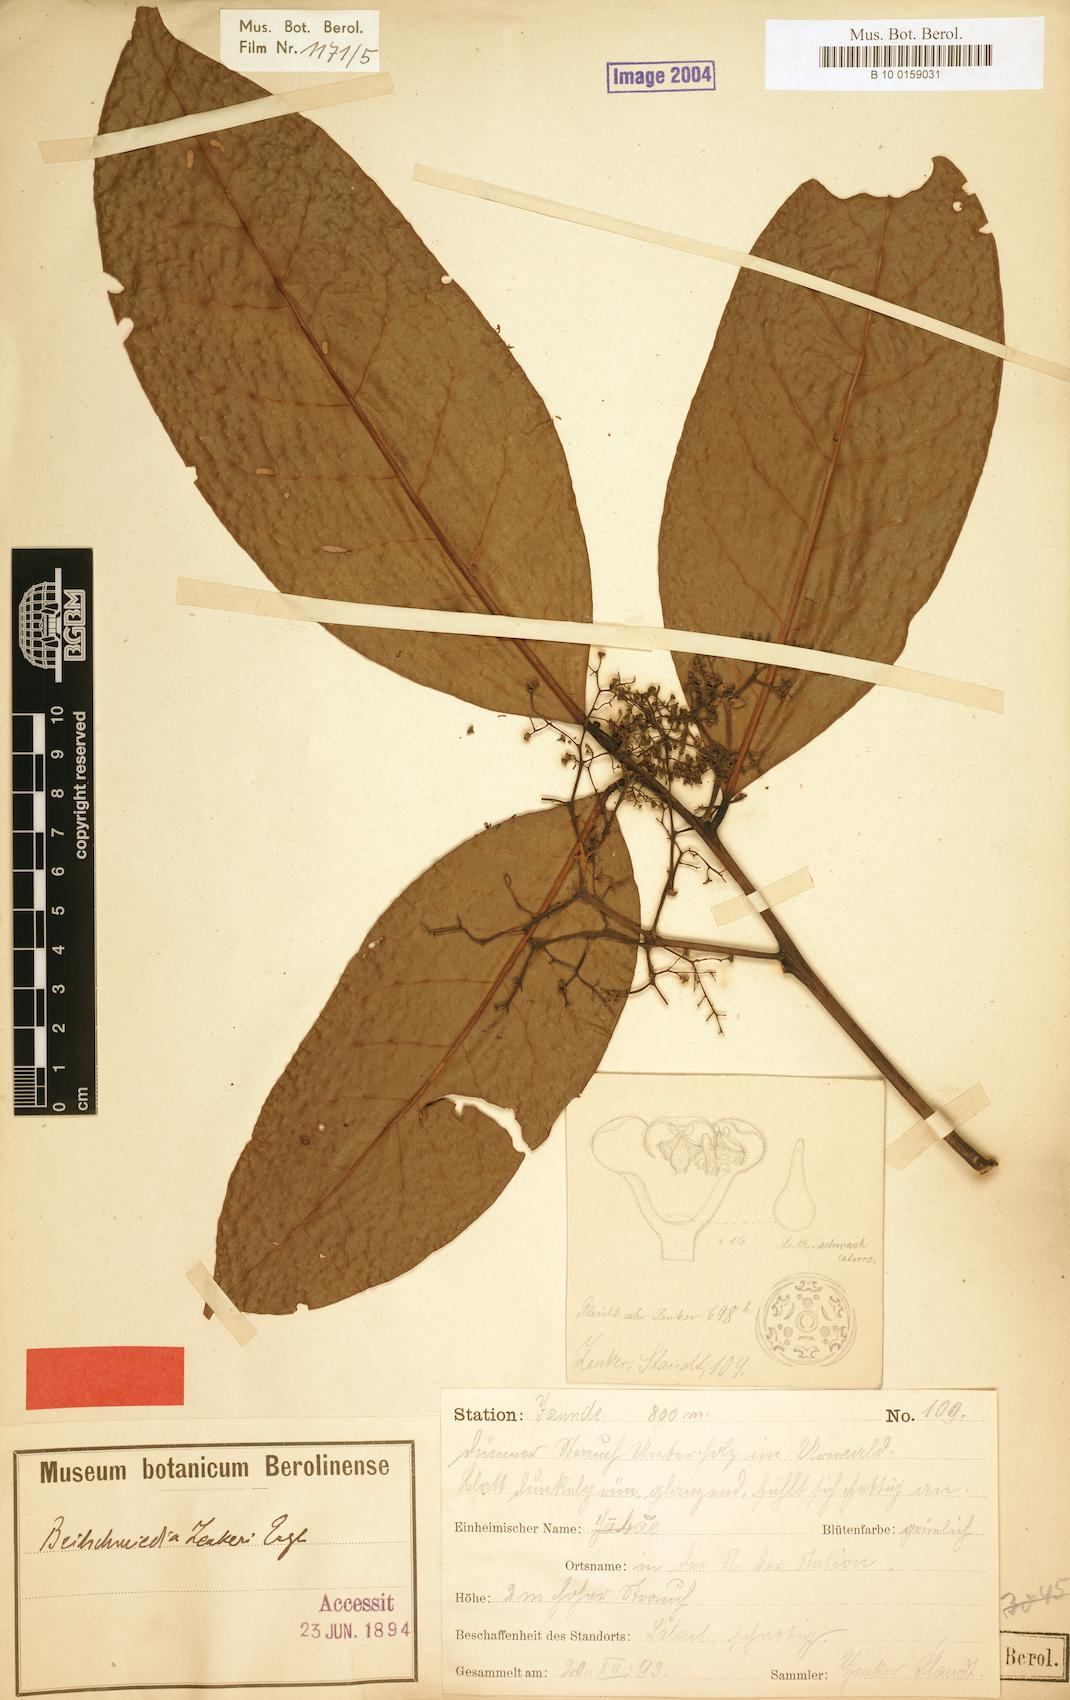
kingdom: Plantae
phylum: Tracheophyta
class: Magnoliopsida
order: Laurales
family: Lauraceae
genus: Beilschmiedia
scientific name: Beilschmiedia zenkeri
